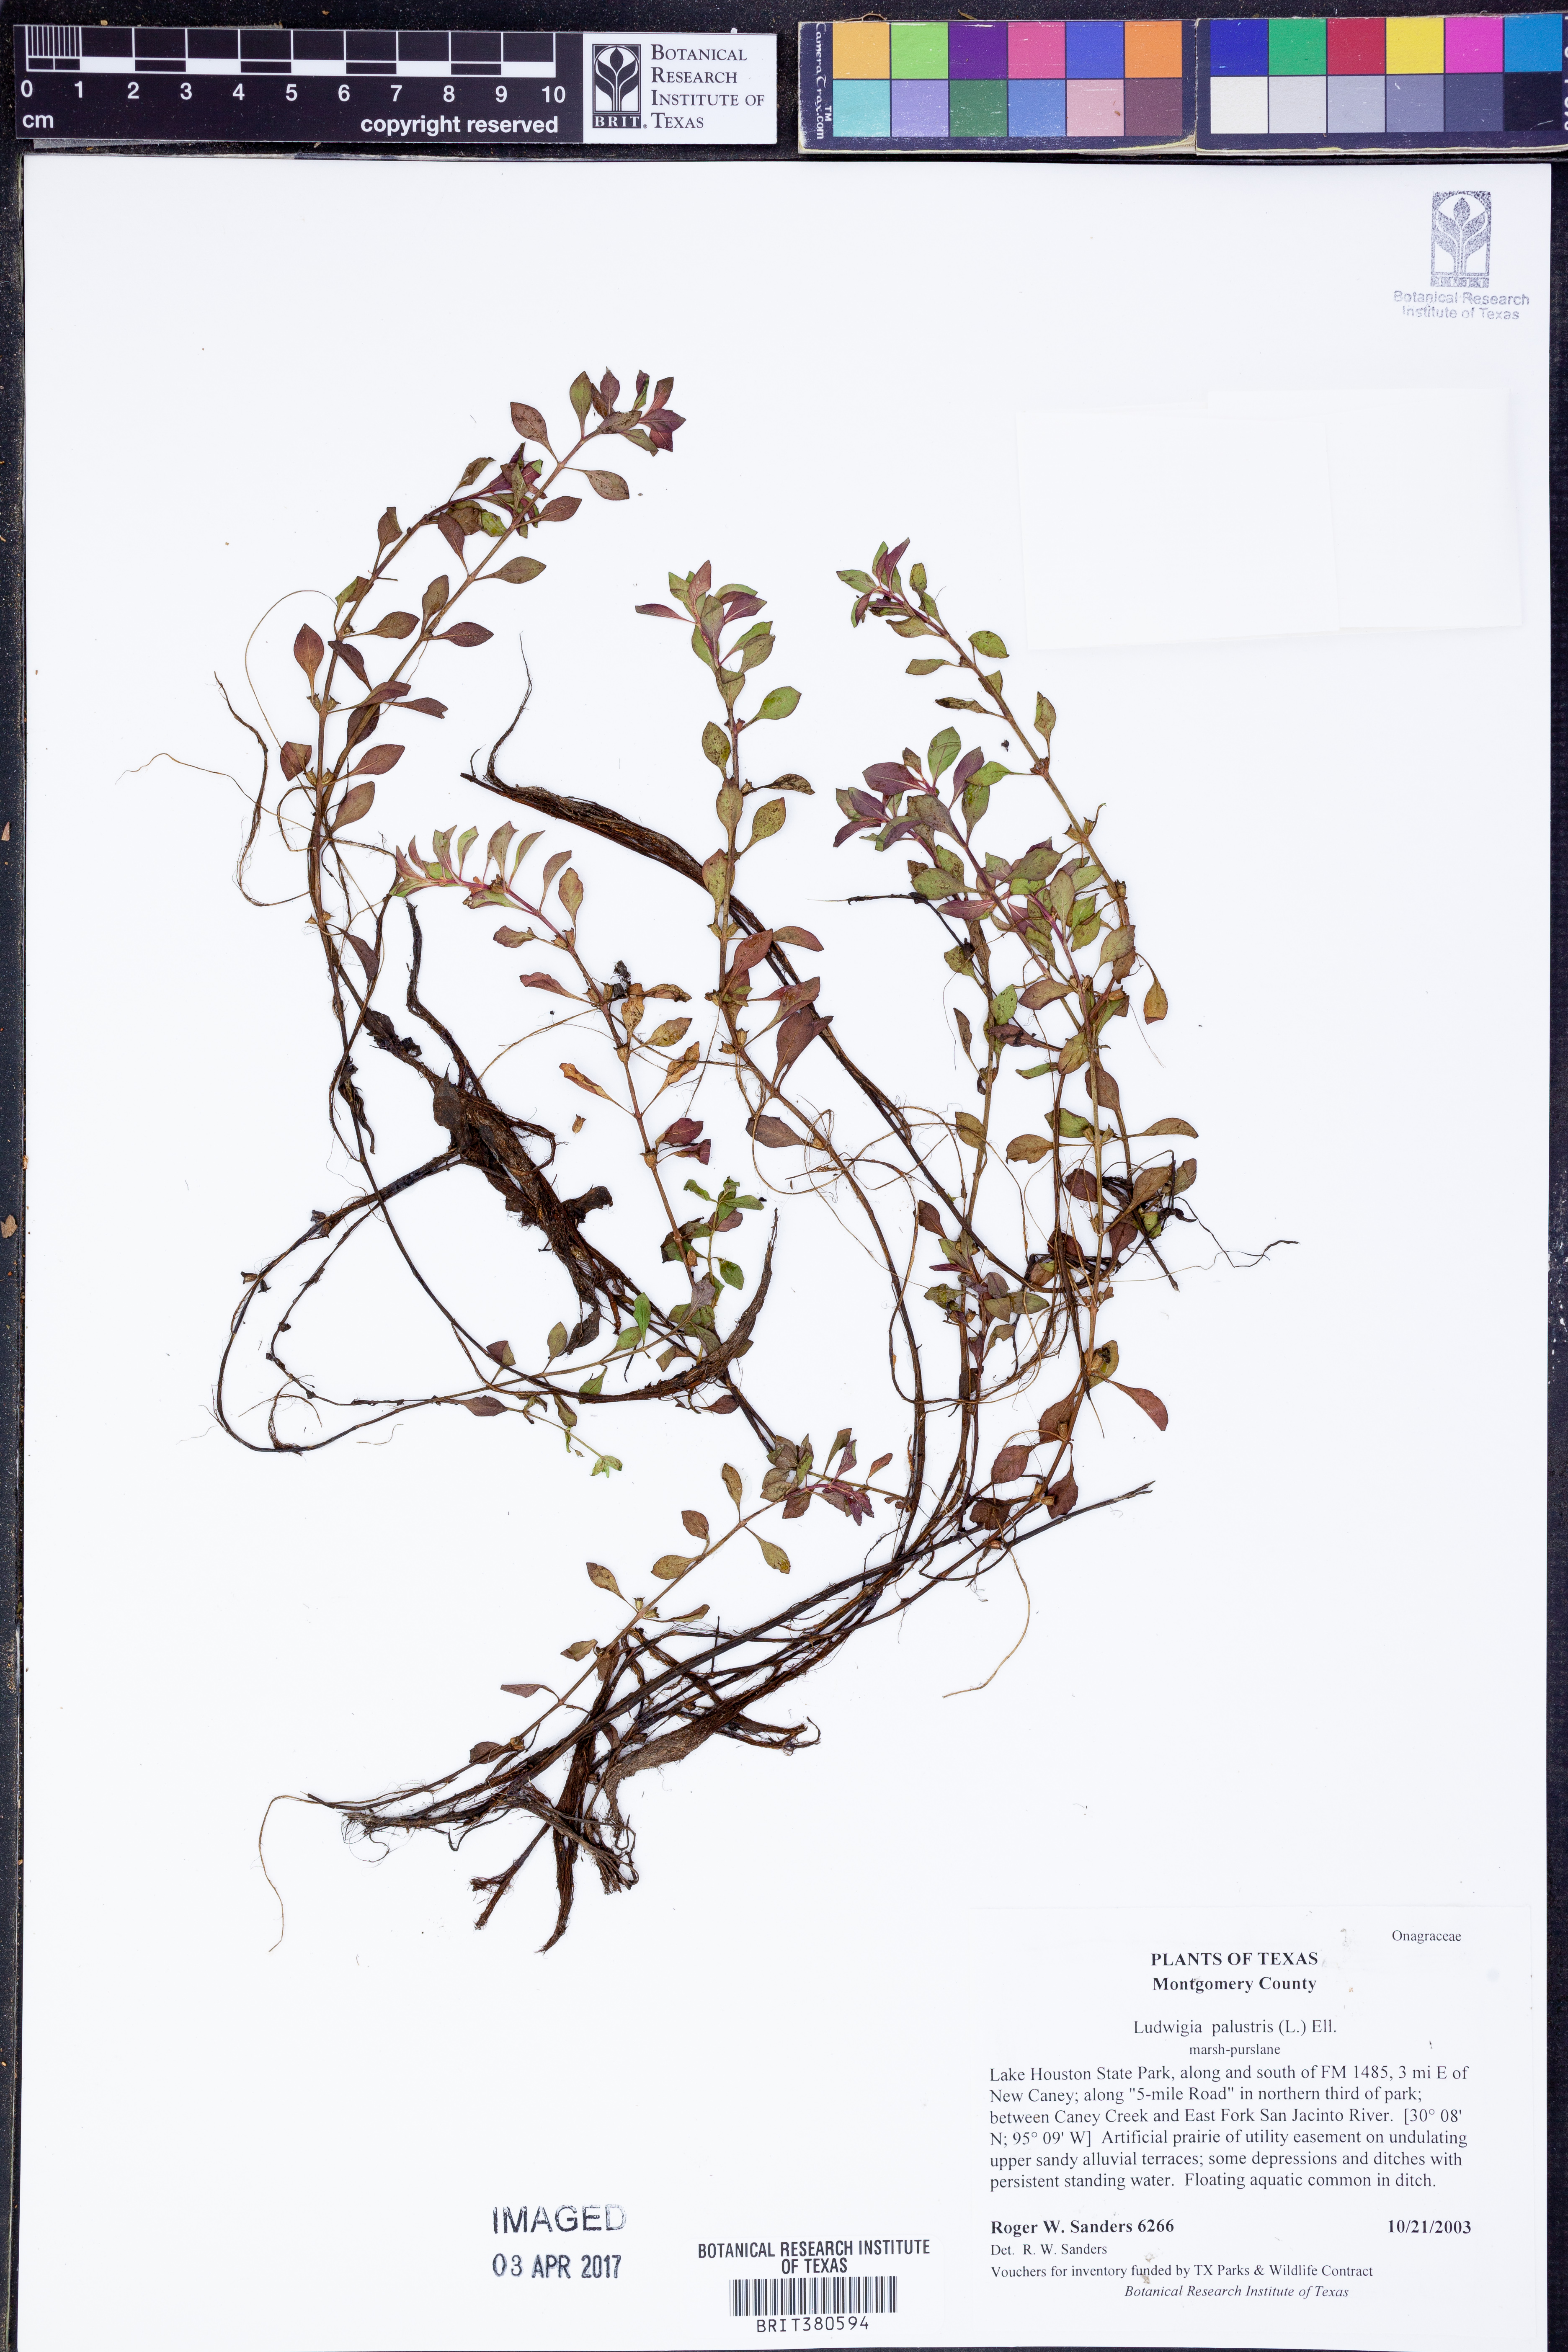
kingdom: Plantae
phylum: Tracheophyta
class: Magnoliopsida
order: Myrtales
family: Onagraceae
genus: Ludwigia
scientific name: Ludwigia palustris
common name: Hampshire-purslane
